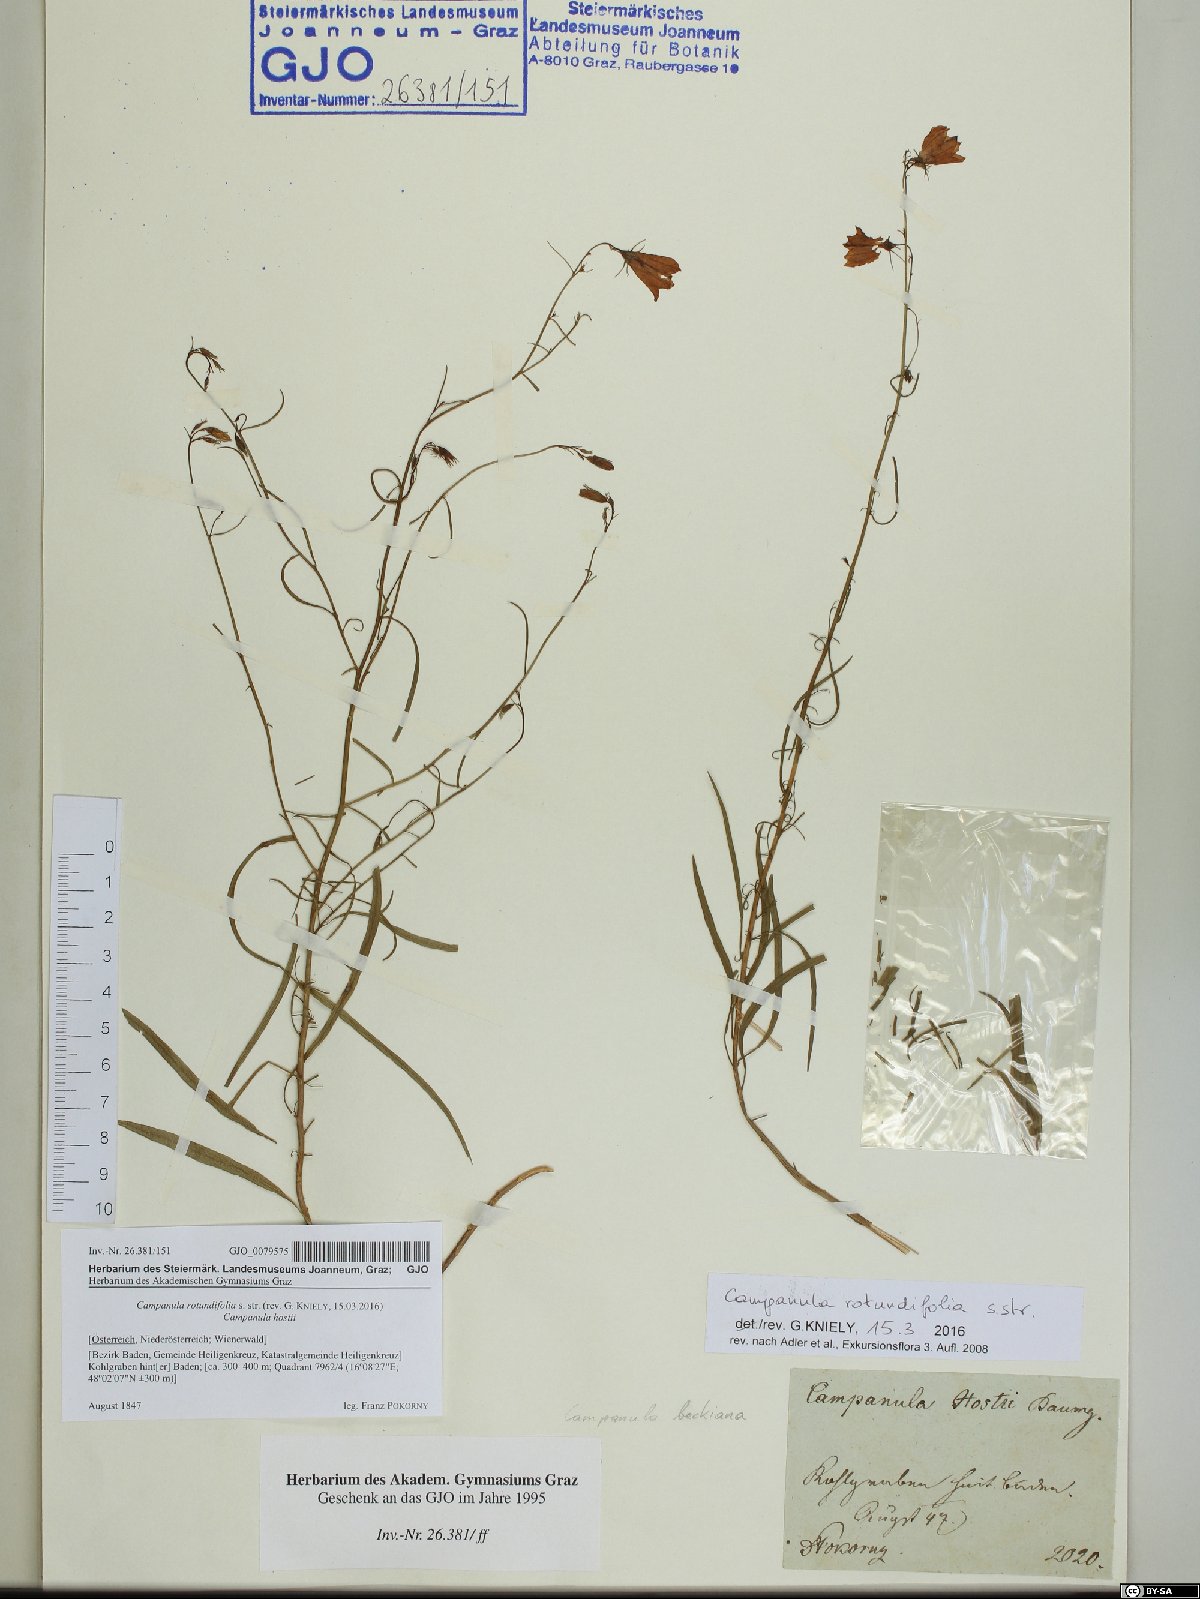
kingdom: Plantae
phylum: Tracheophyta
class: Magnoliopsida
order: Asterales
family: Campanulaceae
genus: Campanula
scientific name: Campanula rotundifolia
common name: Harebell
